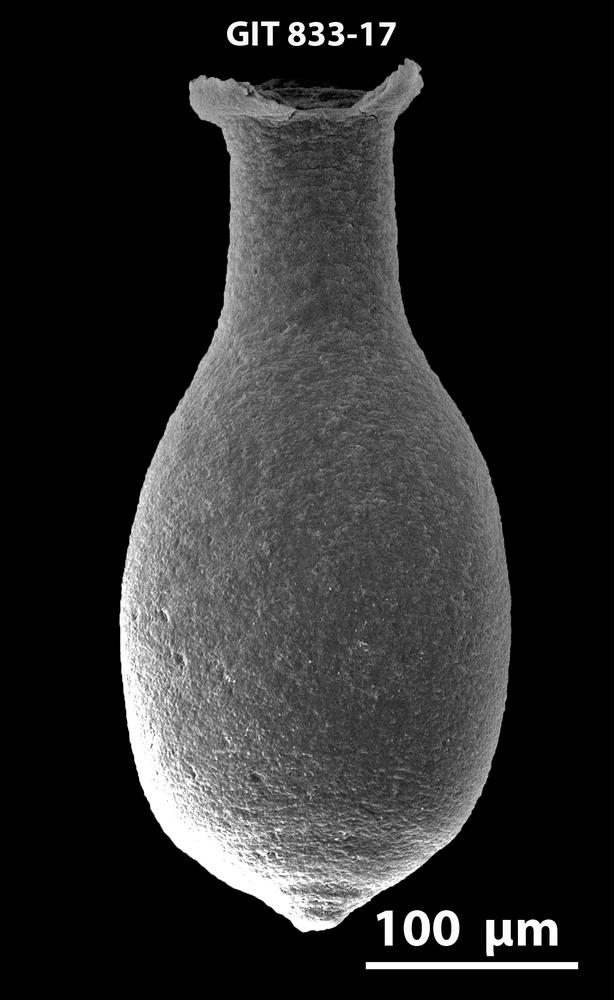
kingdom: Animalia
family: Lagenochitinidae
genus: Lagenochitina
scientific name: Lagenochitina
